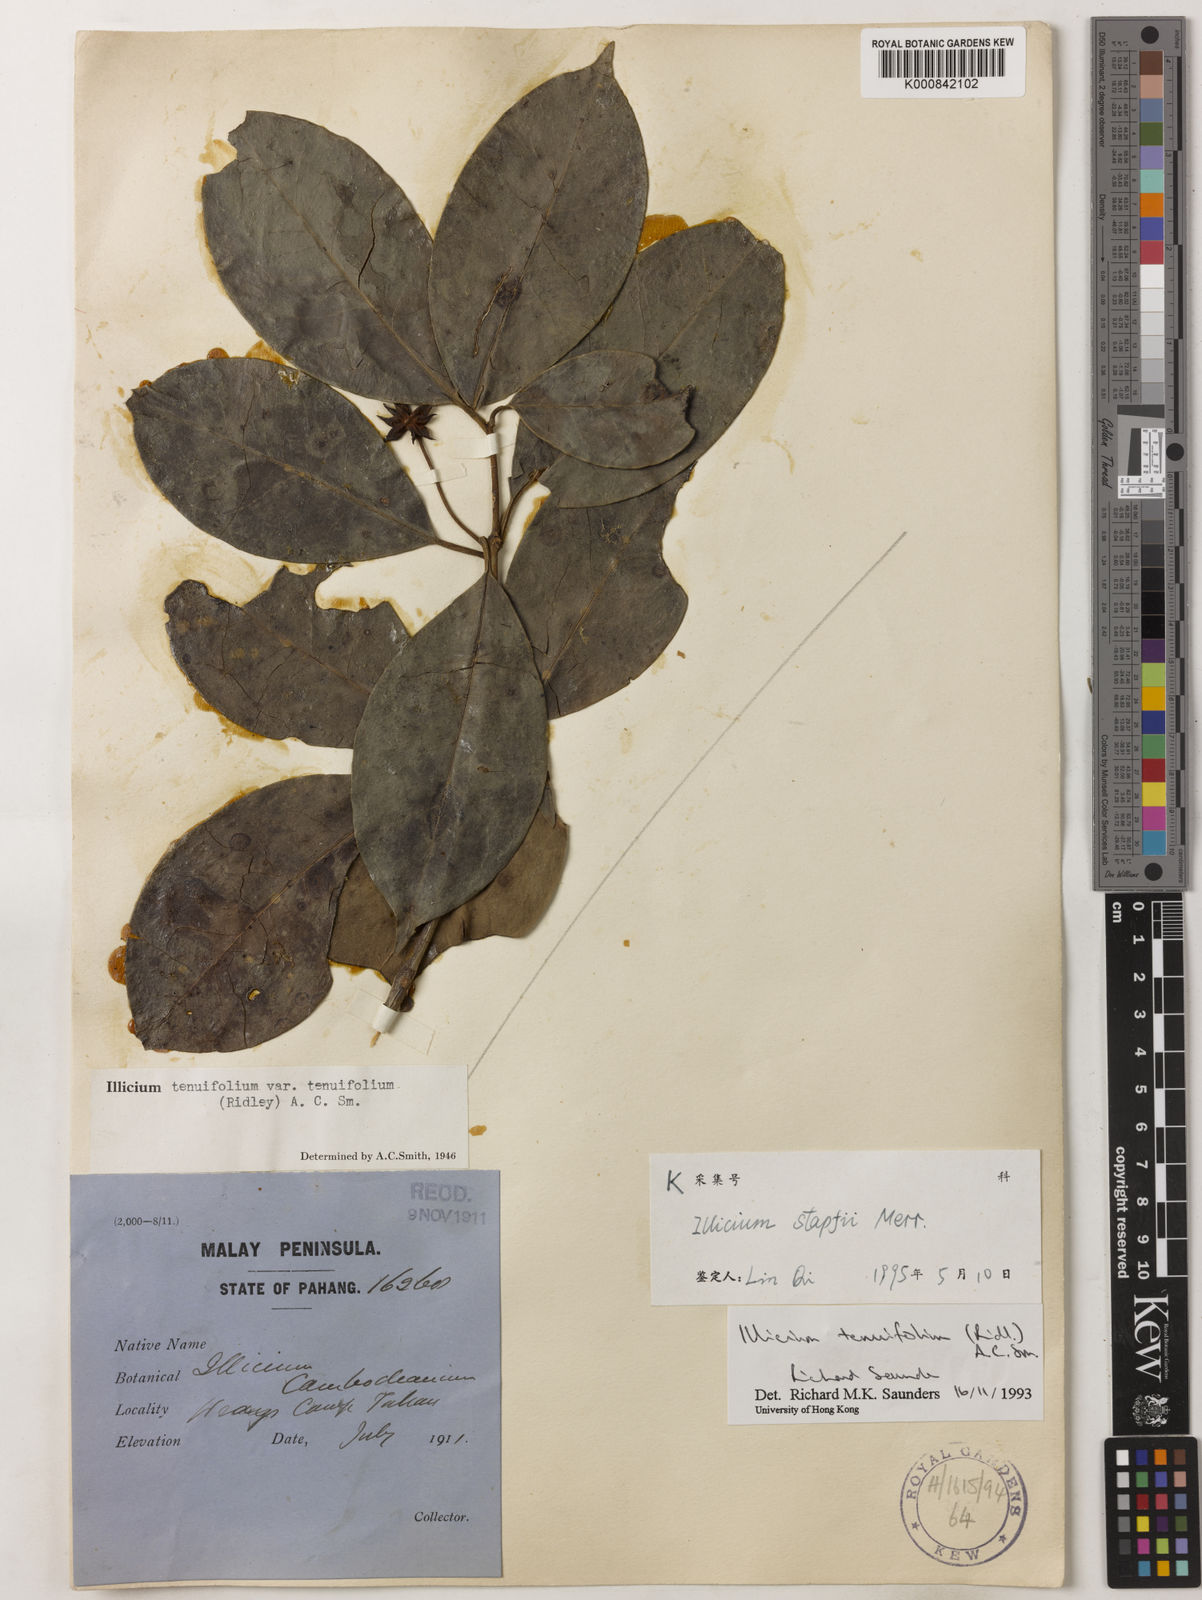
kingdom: Plantae
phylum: Tracheophyta
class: Magnoliopsida
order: Austrobaileyales
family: Schisandraceae
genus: Illicium
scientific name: Illicium stapfii
